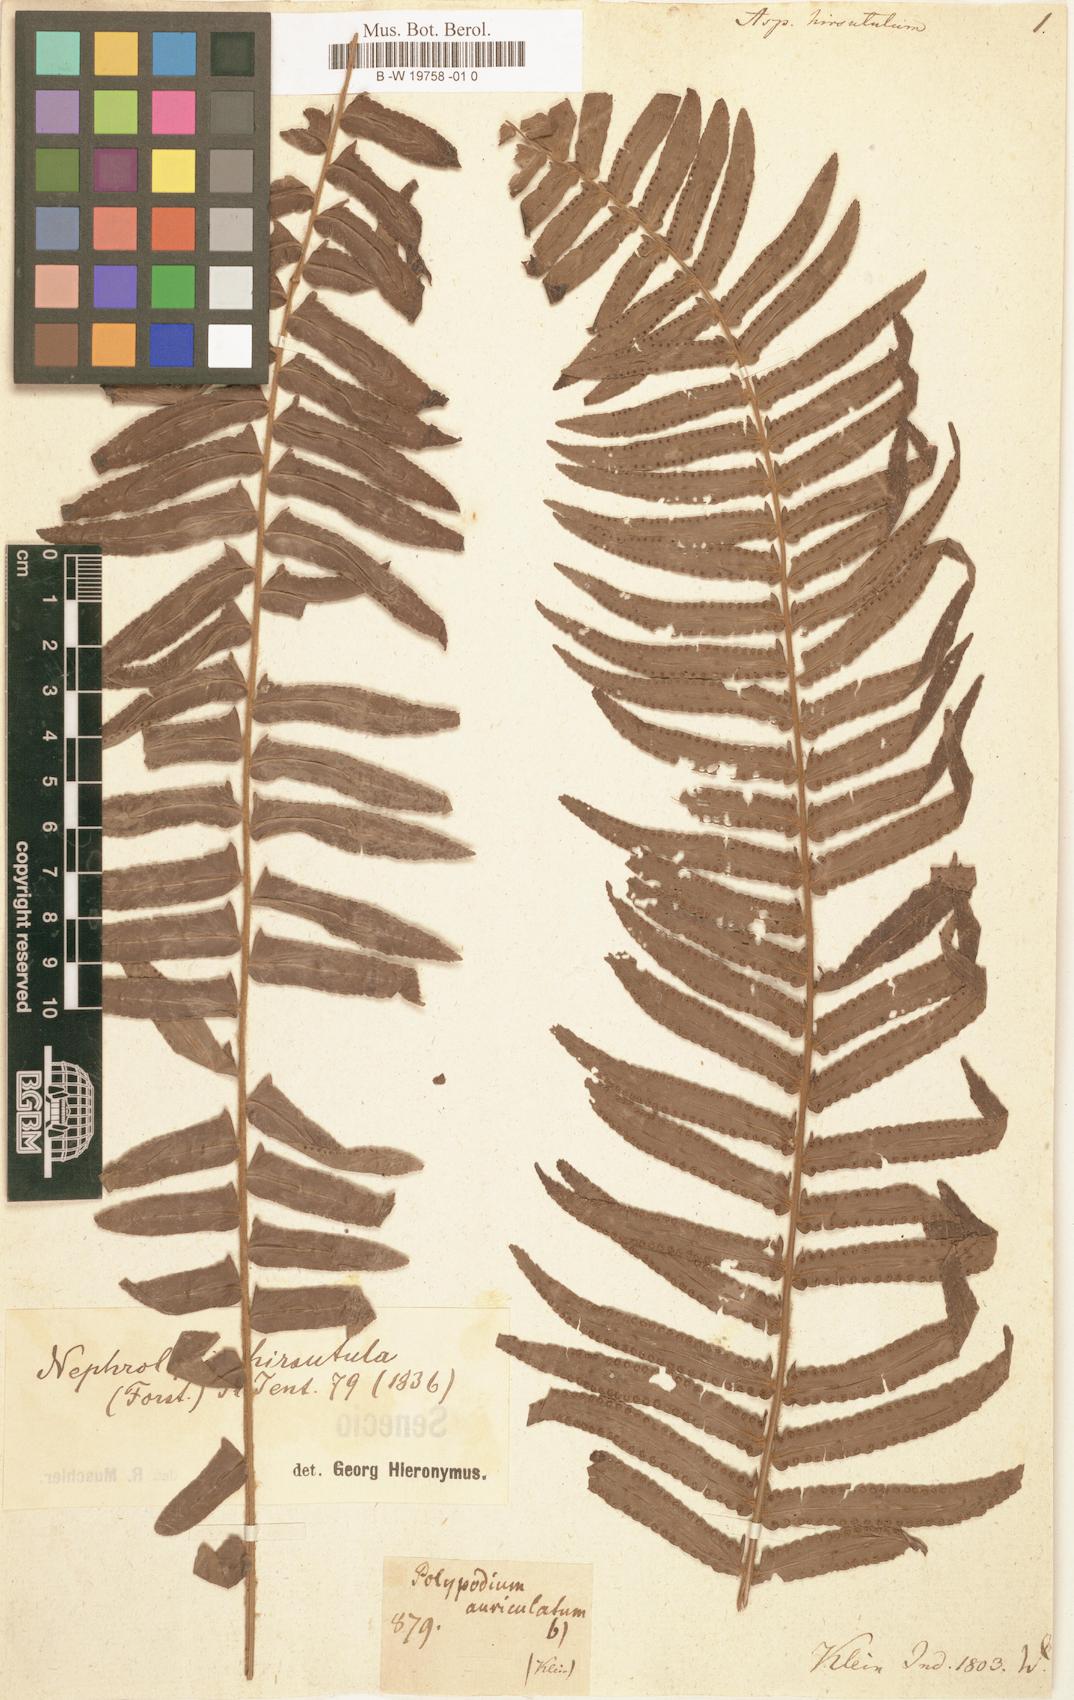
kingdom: Plantae
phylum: Tracheophyta
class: Polypodiopsida
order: Polypodiales
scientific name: Polypodiales
